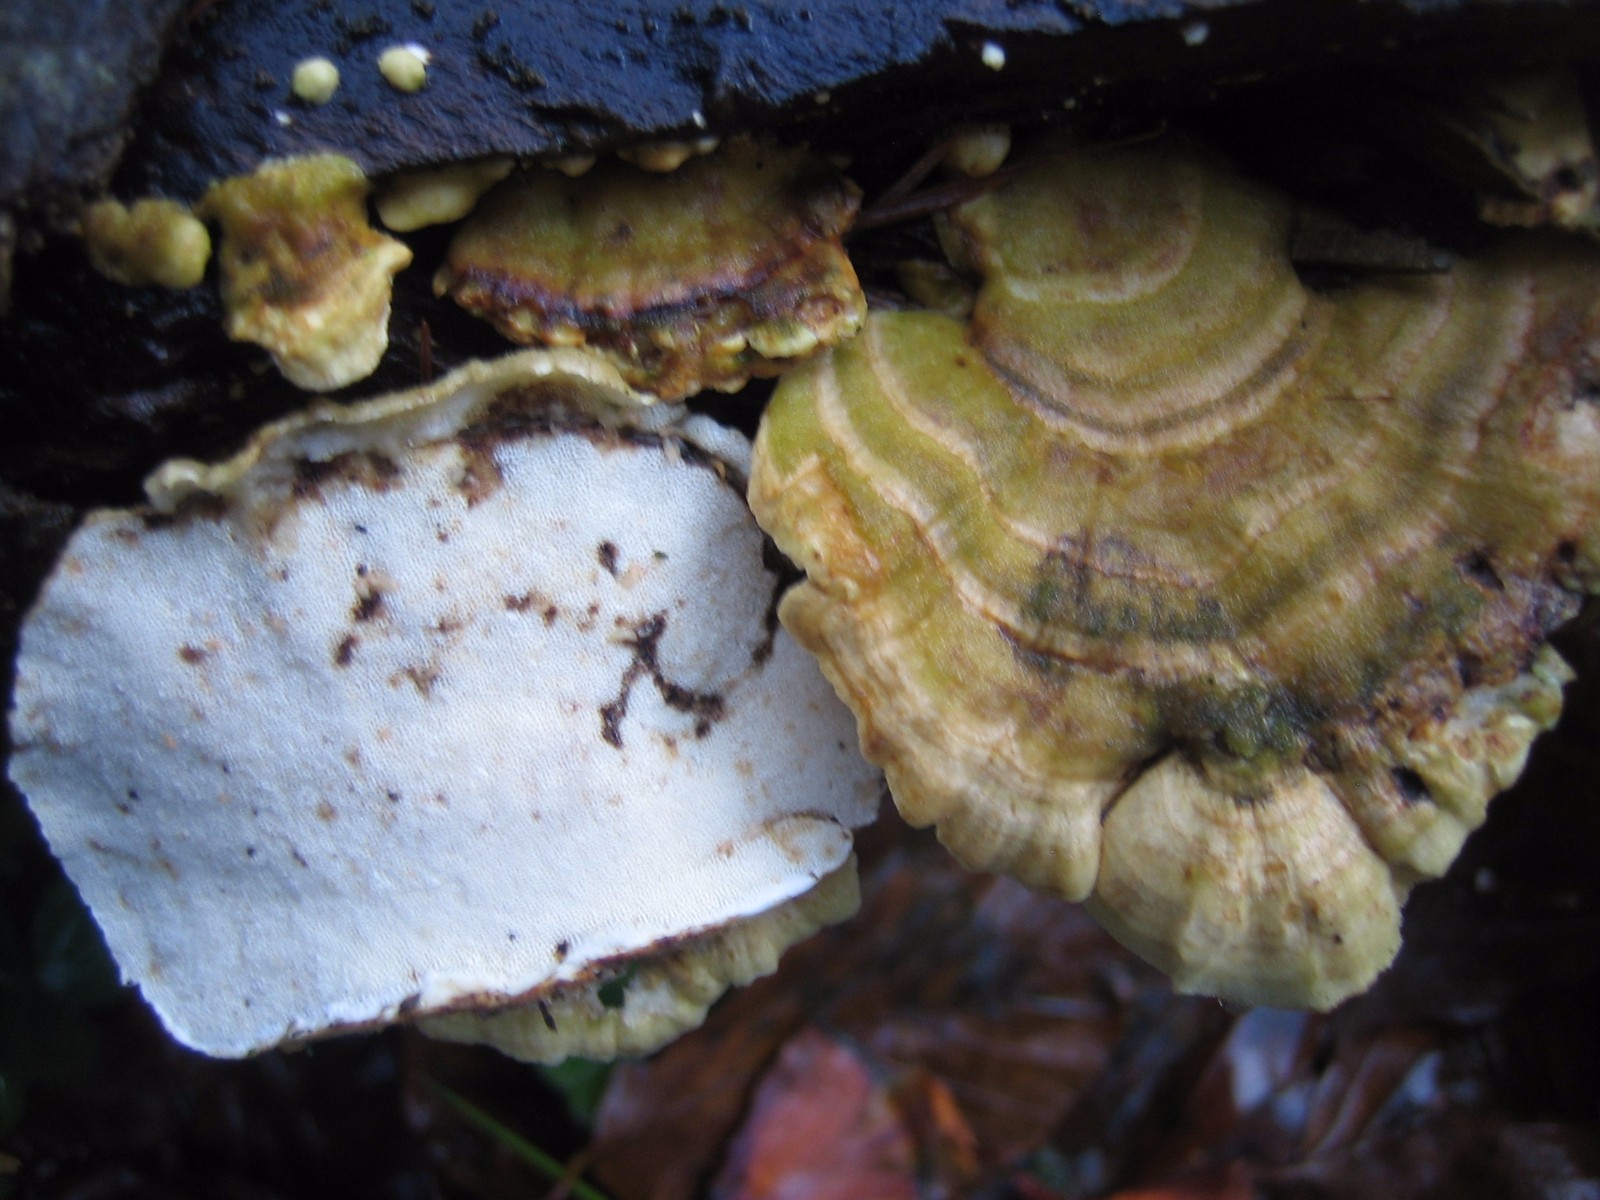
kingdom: Fungi
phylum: Basidiomycota
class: Agaricomycetes
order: Polyporales
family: Polyporaceae
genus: Trametes
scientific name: Trametes hirsuta
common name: håret læderporesvamp
